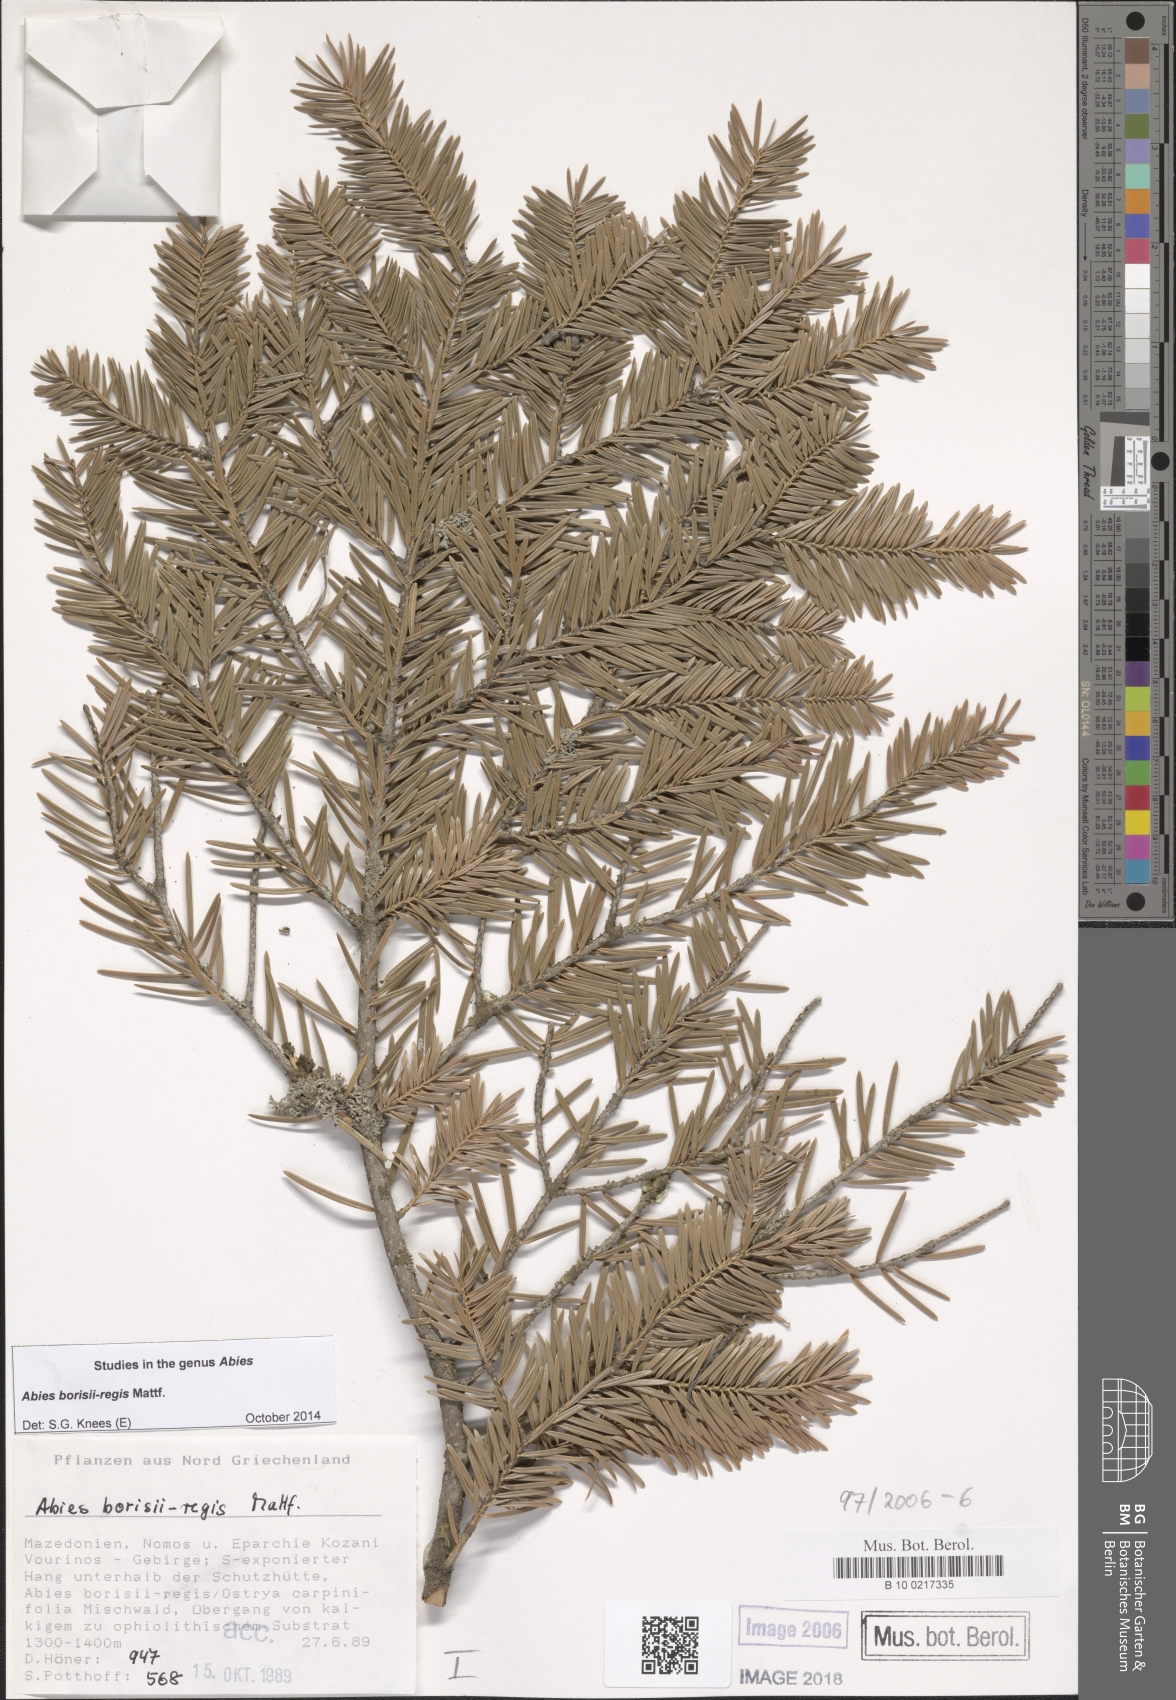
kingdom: Plantae
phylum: Tracheophyta
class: Pinopsida
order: Pinales
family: Pinaceae
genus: Abies
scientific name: Abies borisii-regis
